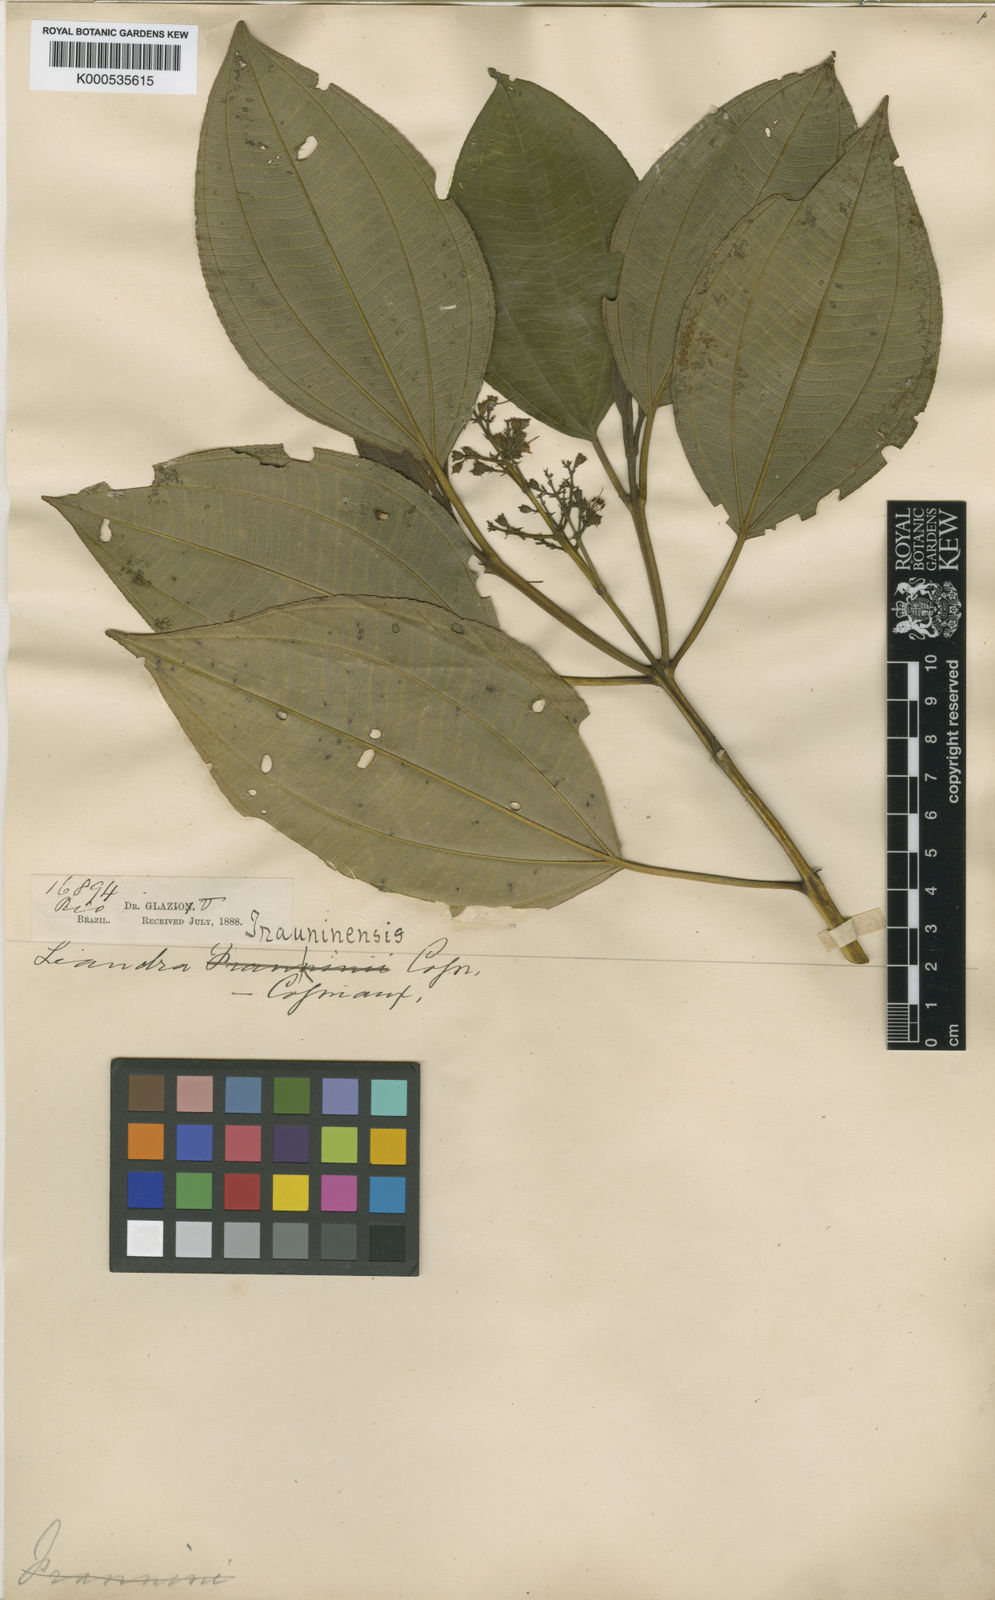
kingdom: Plantae
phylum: Tracheophyta
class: Magnoliopsida
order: Myrtales
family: Melastomataceae
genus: Miconia
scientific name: Miconia trauninensis
